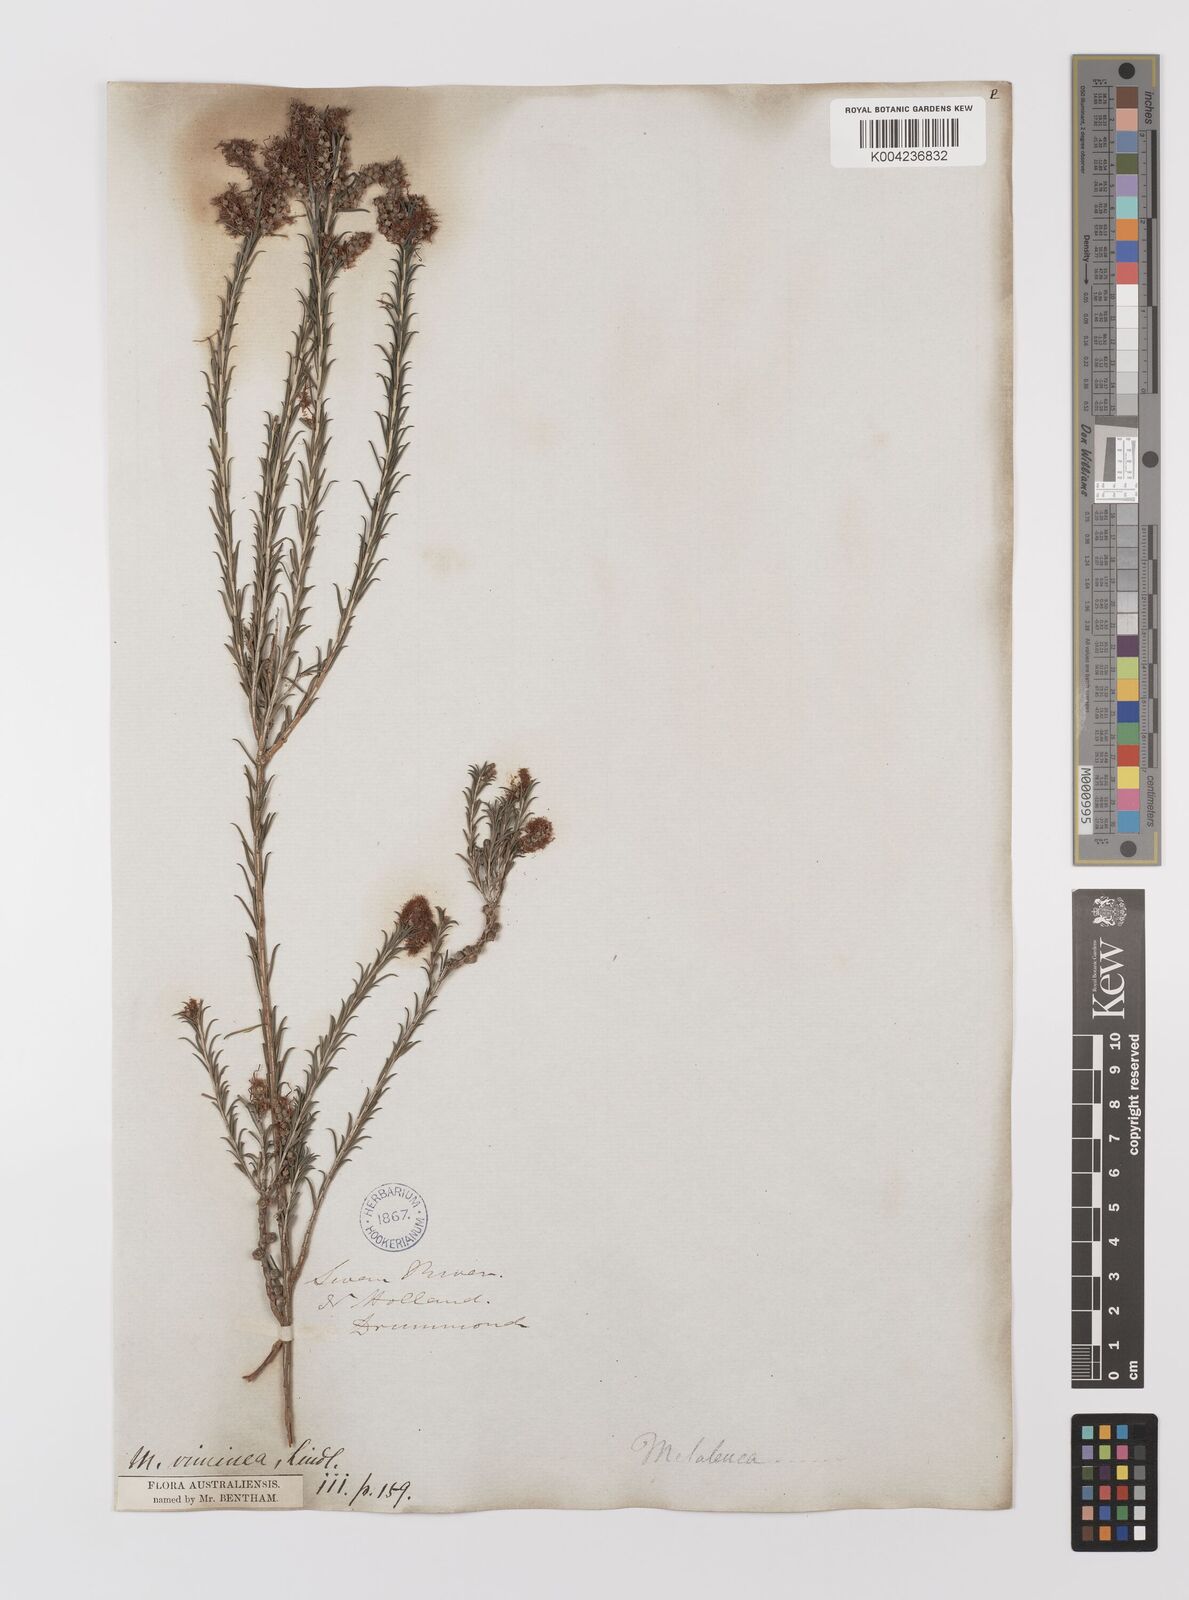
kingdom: Plantae
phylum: Tracheophyta
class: Magnoliopsida
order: Myrtales
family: Myrtaceae
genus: Melaleuca
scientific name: Melaleuca viminea
